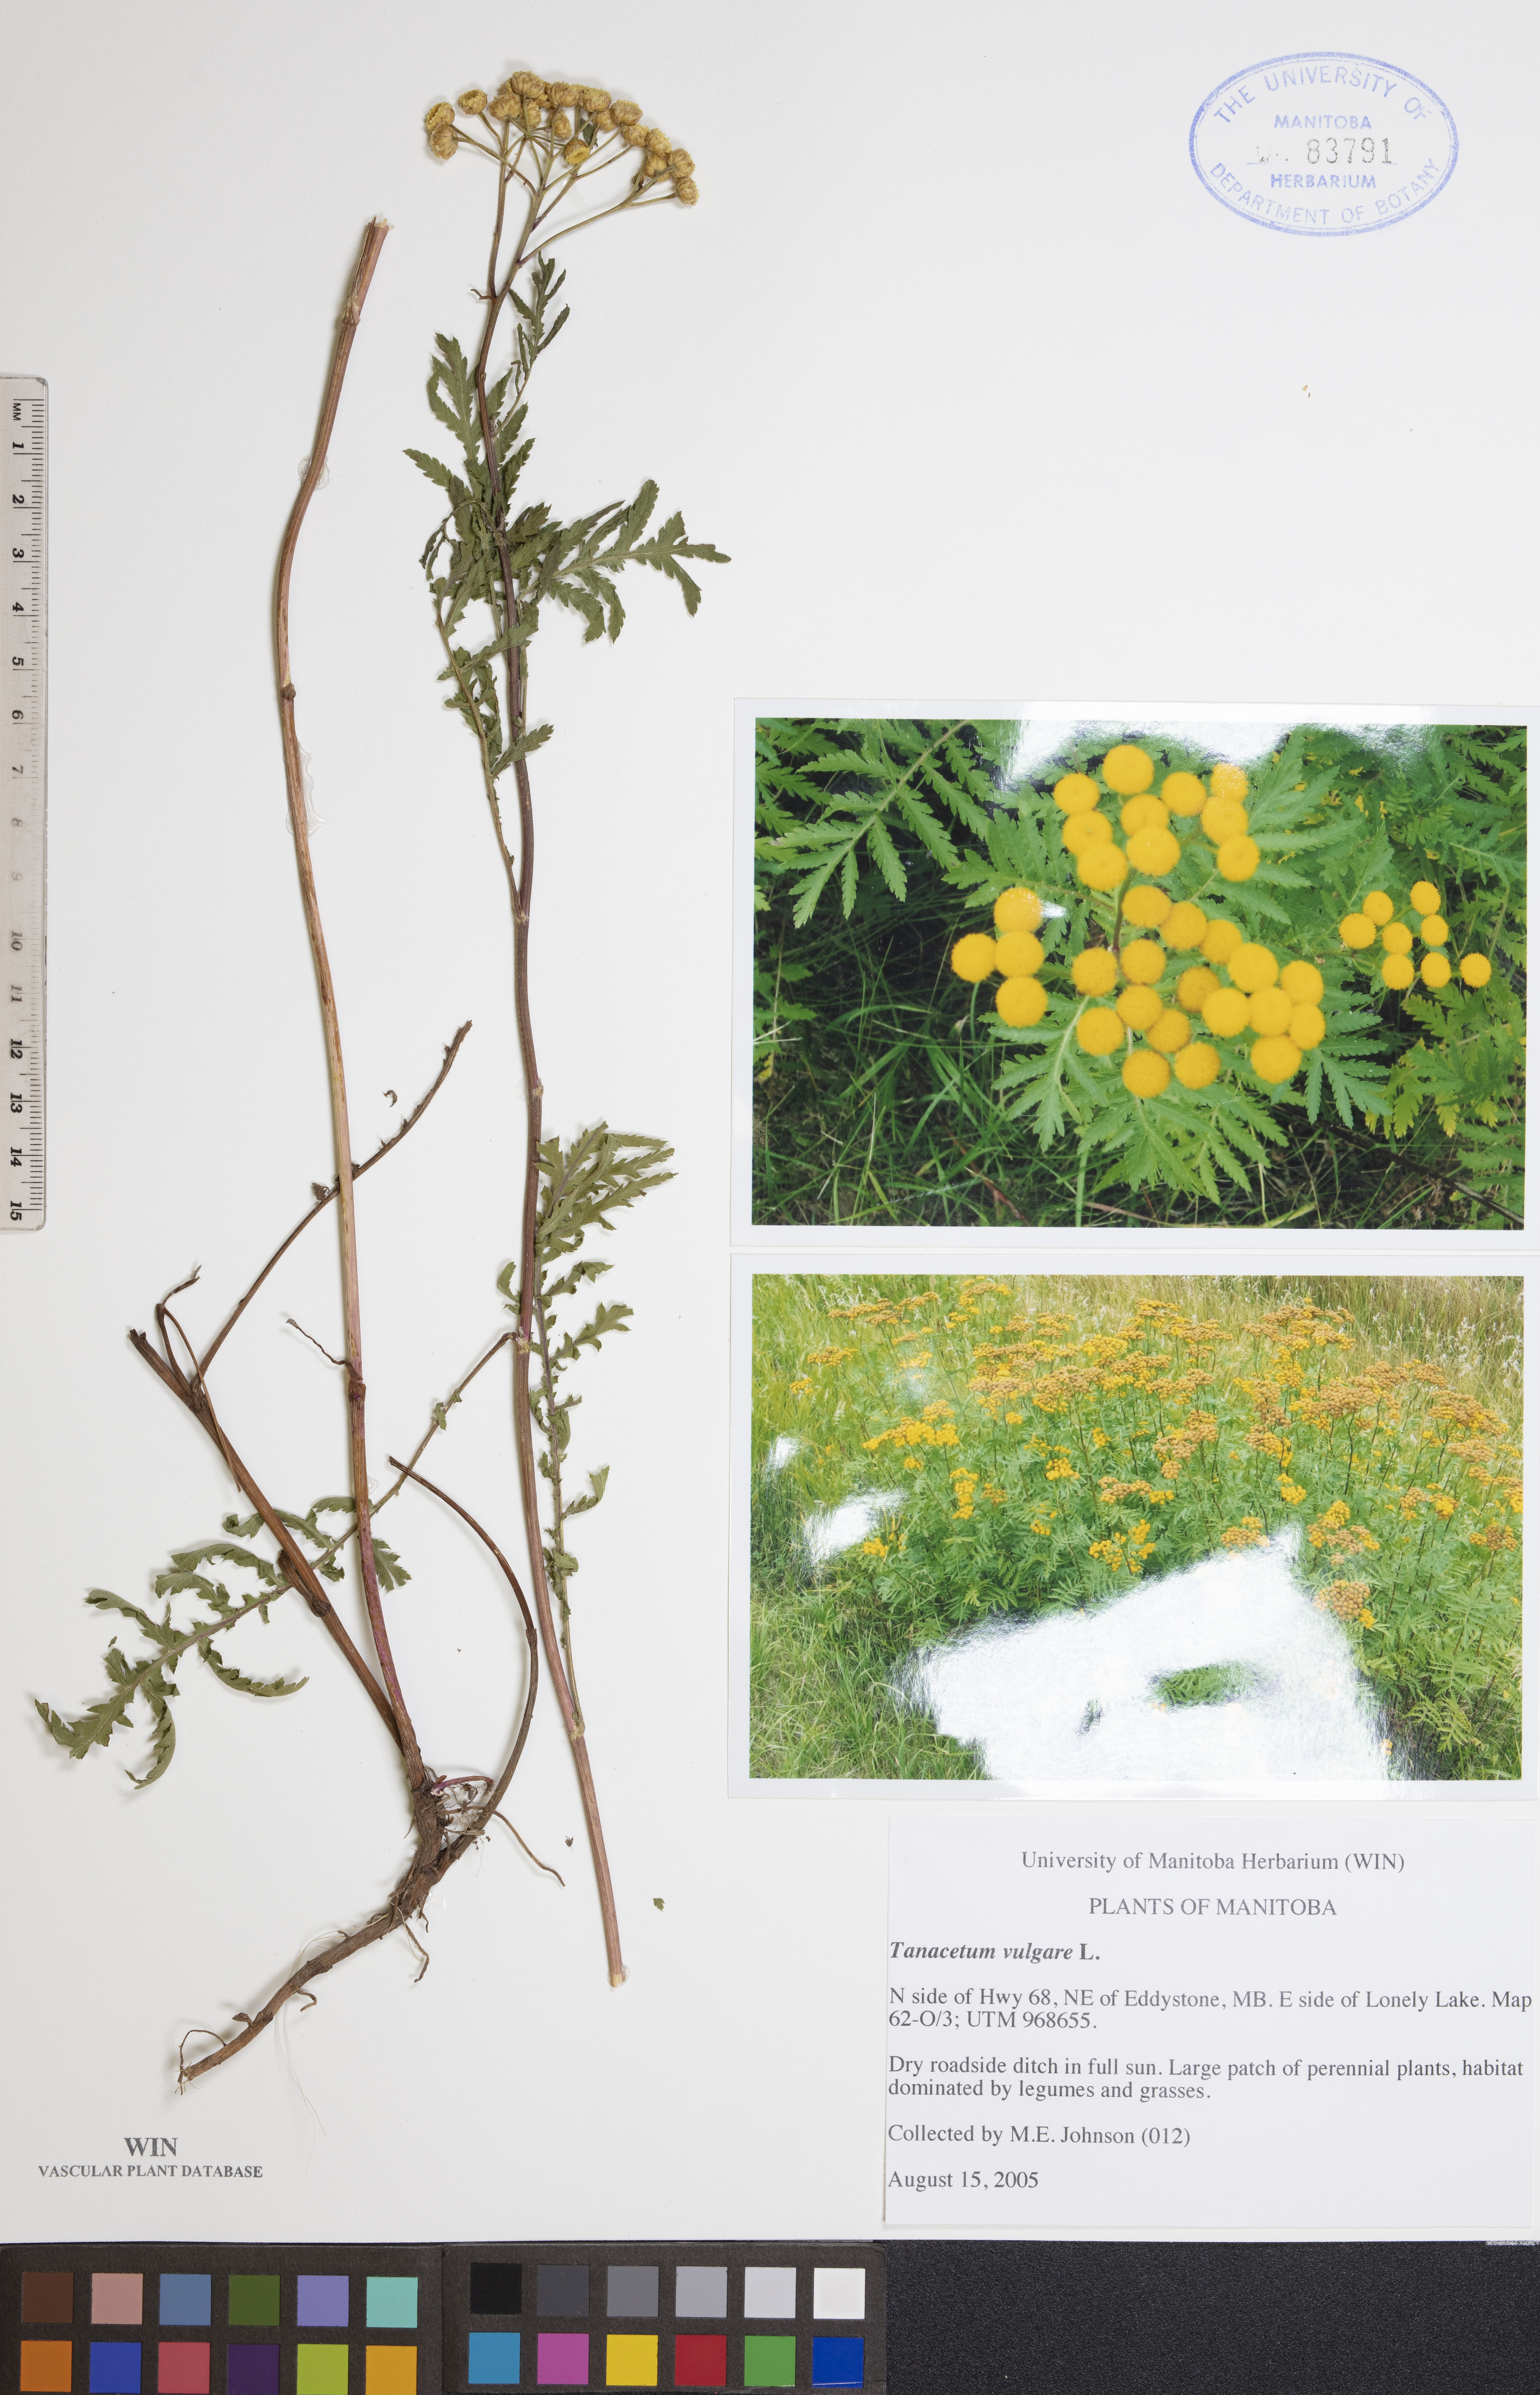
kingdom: Plantae
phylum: Tracheophyta
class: Magnoliopsida
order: Asterales
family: Asteraceae
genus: Tanacetum
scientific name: Tanacetum vulgare
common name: Common tansy
